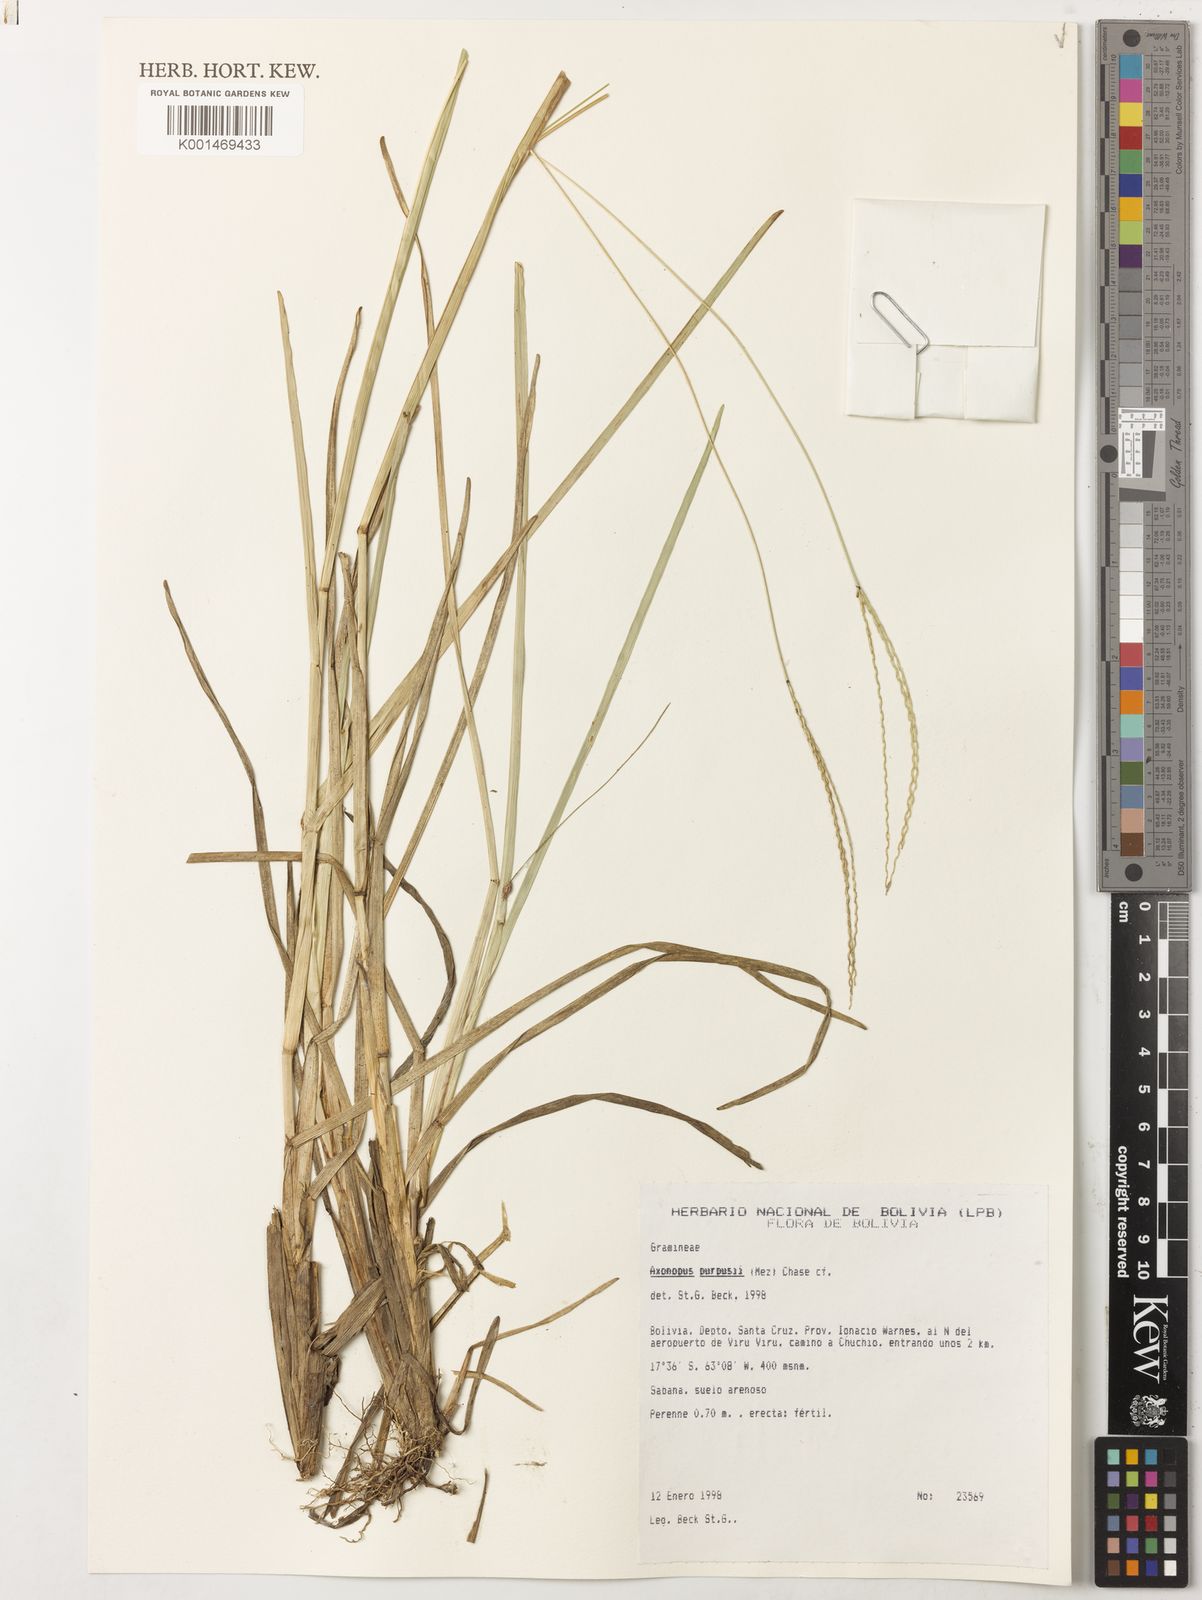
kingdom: Plantae
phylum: Tracheophyta
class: Liliopsida
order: Poales
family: Poaceae
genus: Axonopus
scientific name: Axonopus purpusii
